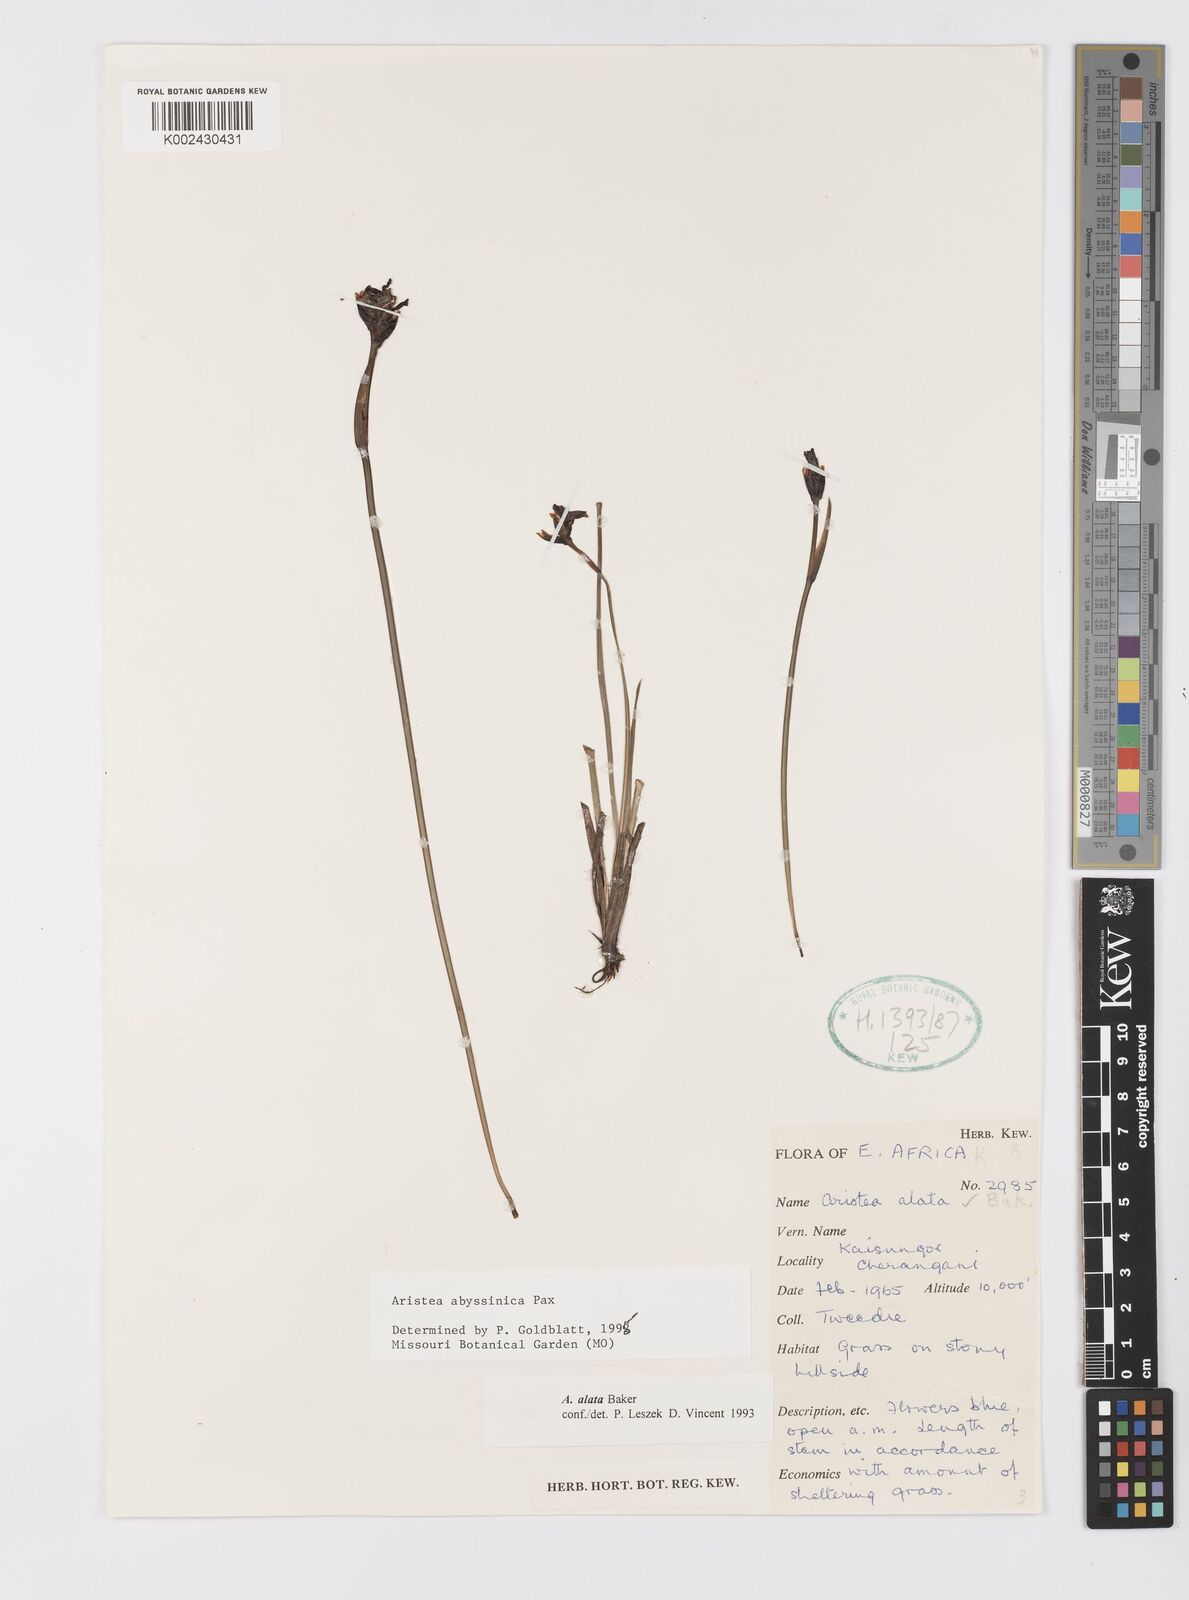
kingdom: Plantae
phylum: Tracheophyta
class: Liliopsida
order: Asparagales
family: Iridaceae
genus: Aristea
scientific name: Aristea abyssinica
